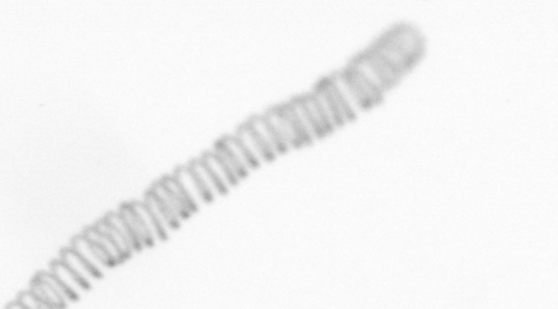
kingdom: Chromista
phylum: Ochrophyta
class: Bacillariophyceae
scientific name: Bacillariophyceae
